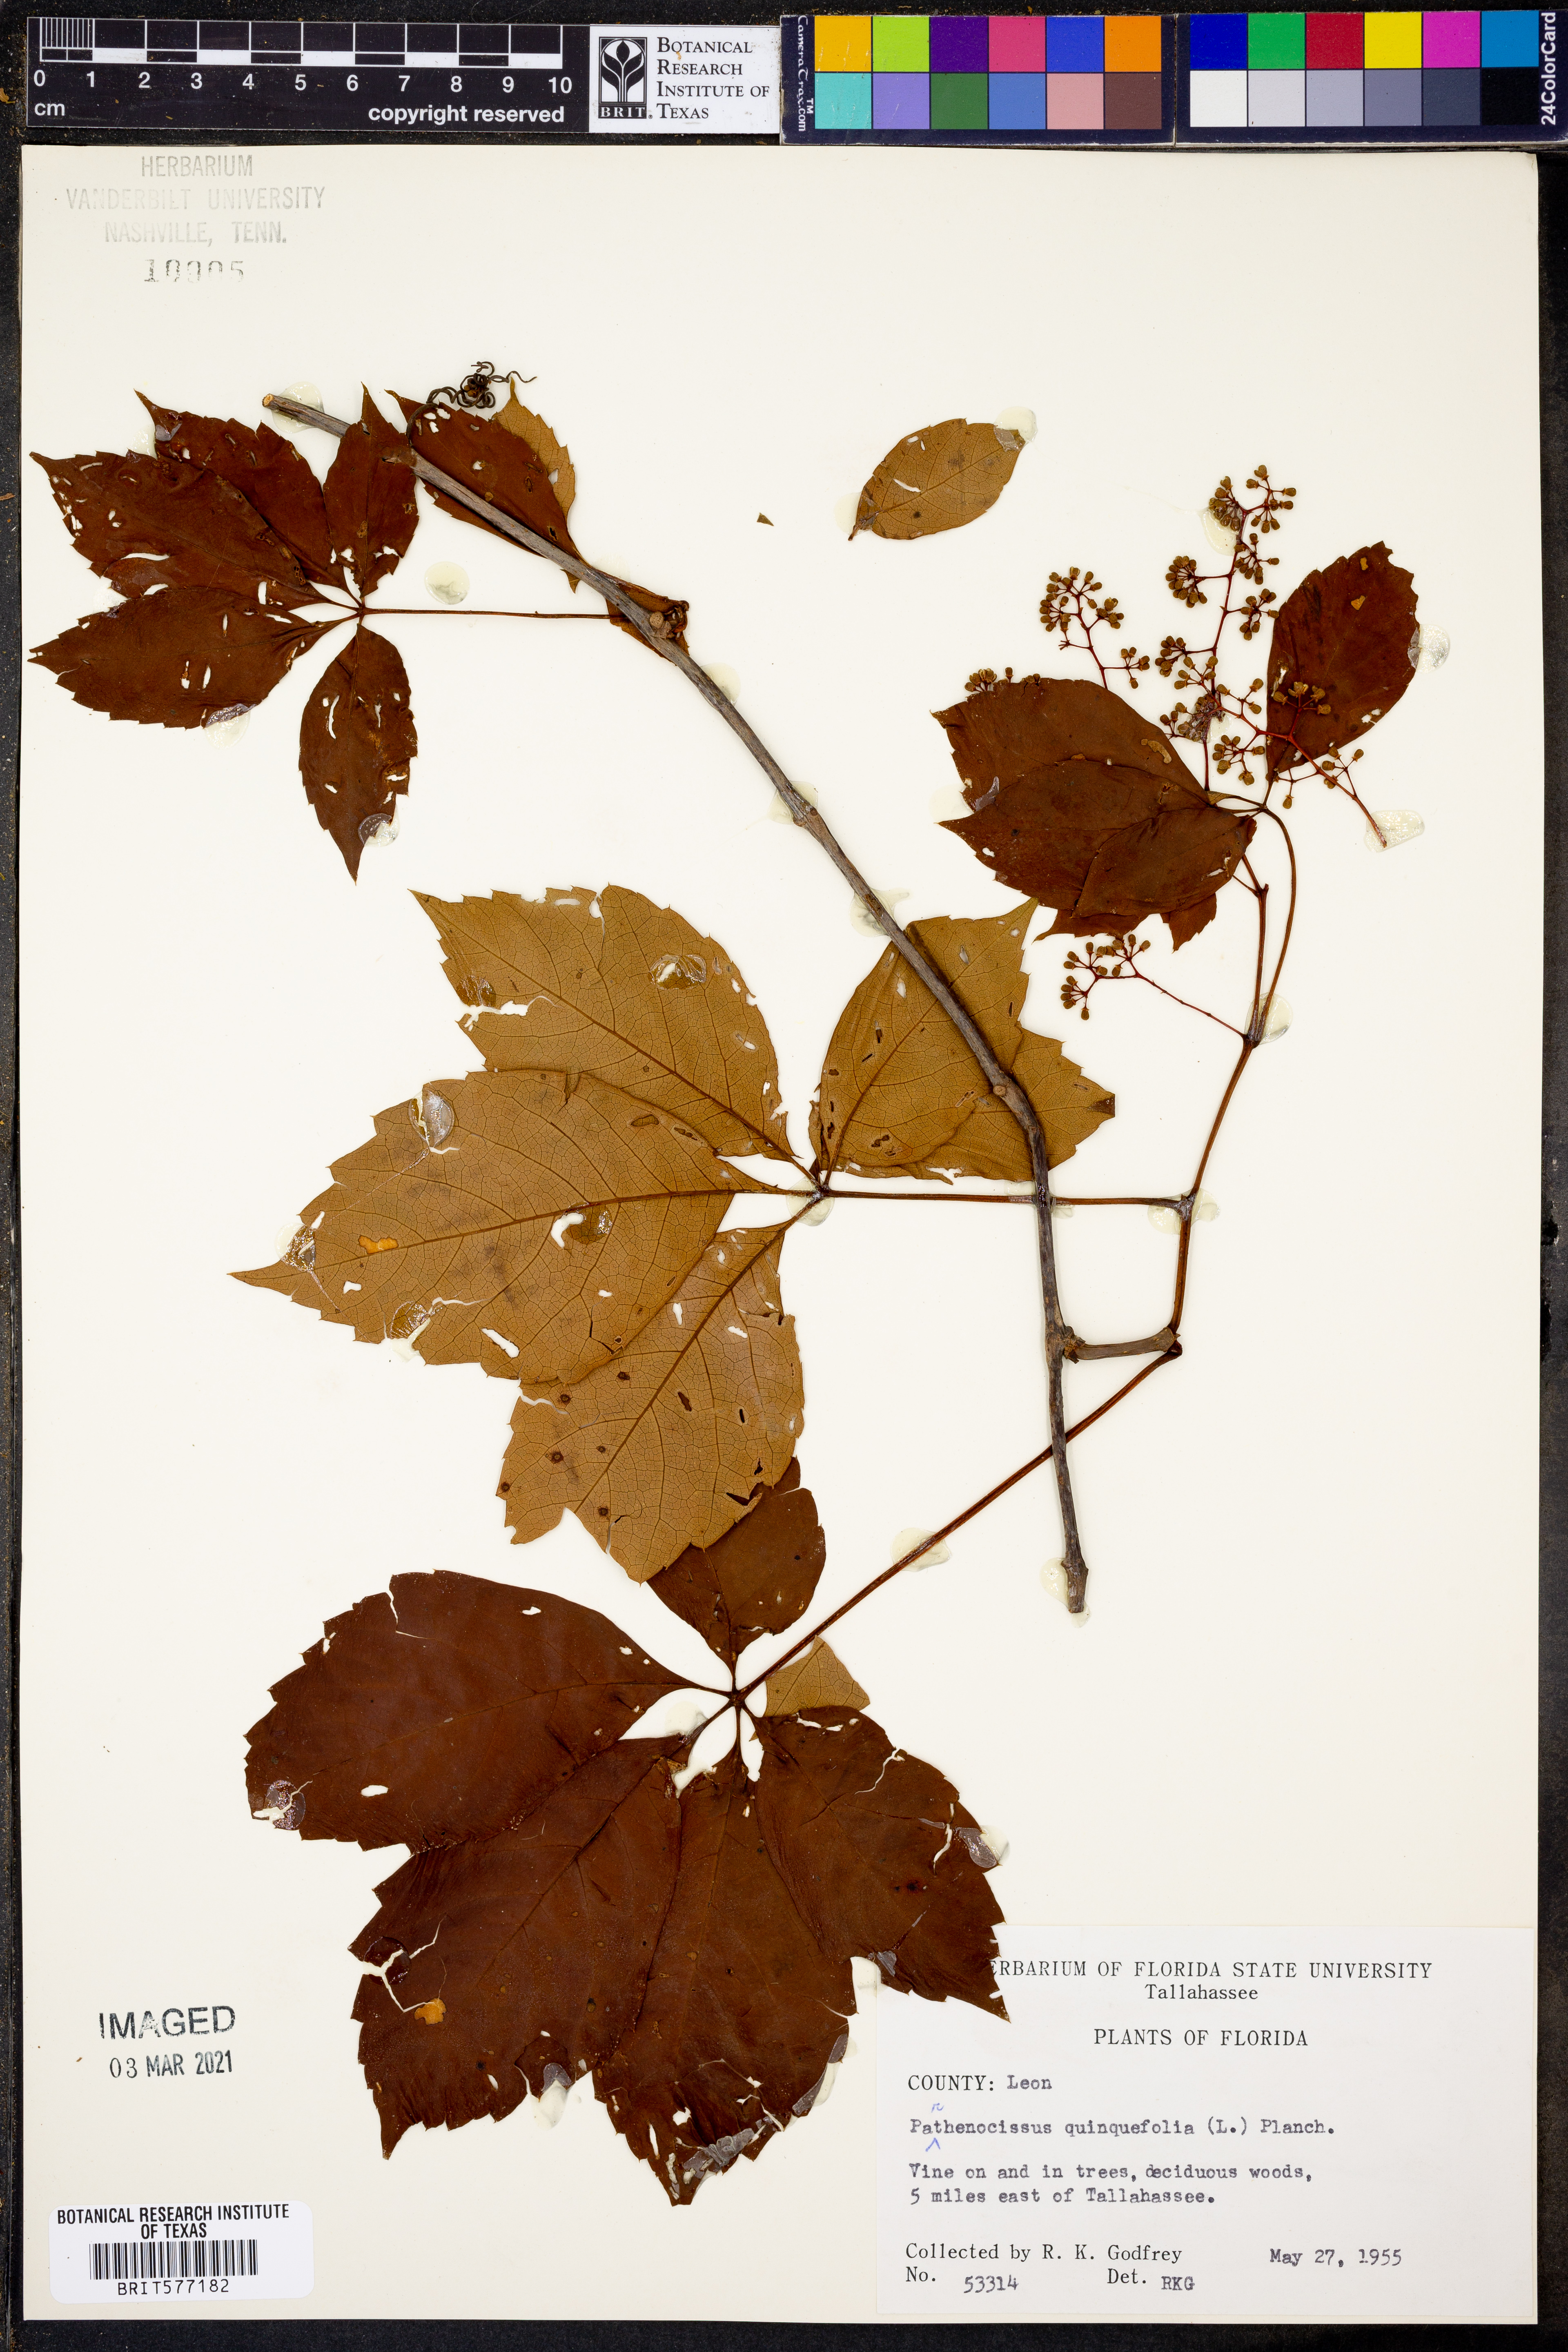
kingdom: Plantae
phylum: Tracheophyta
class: Magnoliopsida
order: Vitales
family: Vitaceae
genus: Parthenocissus
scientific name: Parthenocissus quinquefolia
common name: Virginia-creeper
